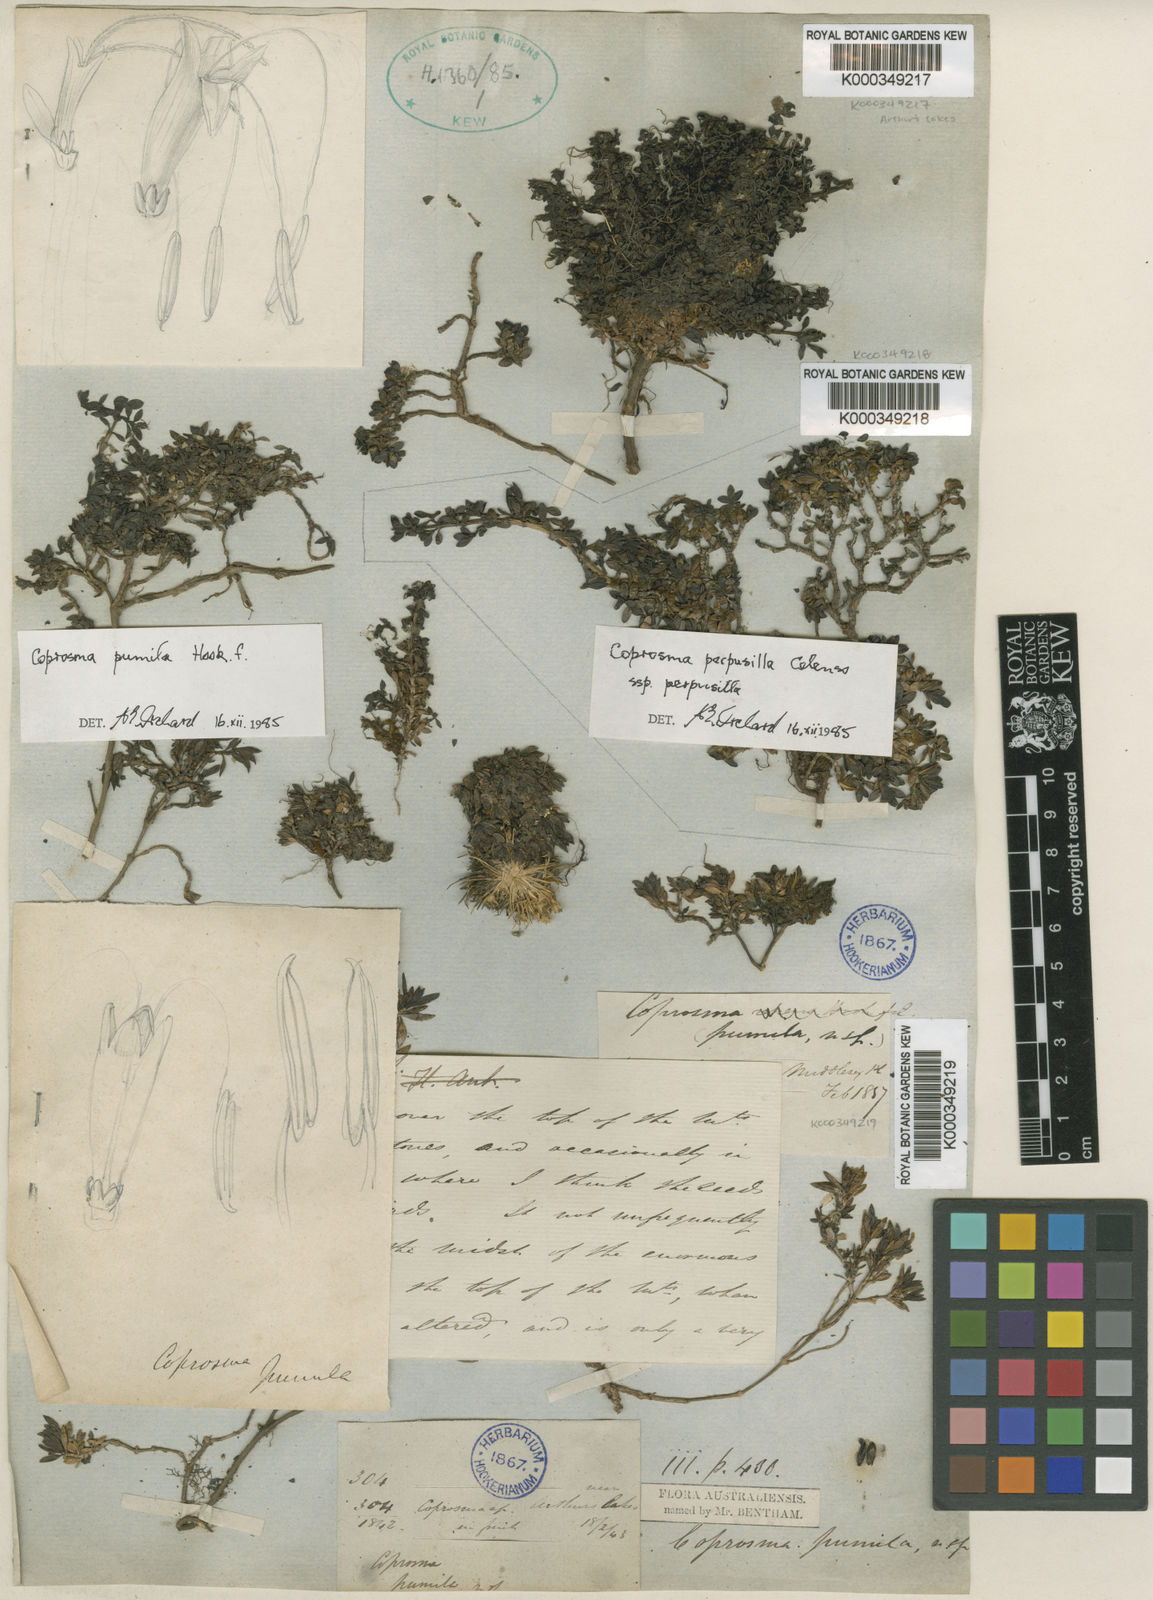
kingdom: Plantae
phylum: Tracheophyta
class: Magnoliopsida
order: Gentianales
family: Rubiaceae
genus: Coprosma
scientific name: Coprosma pumila
